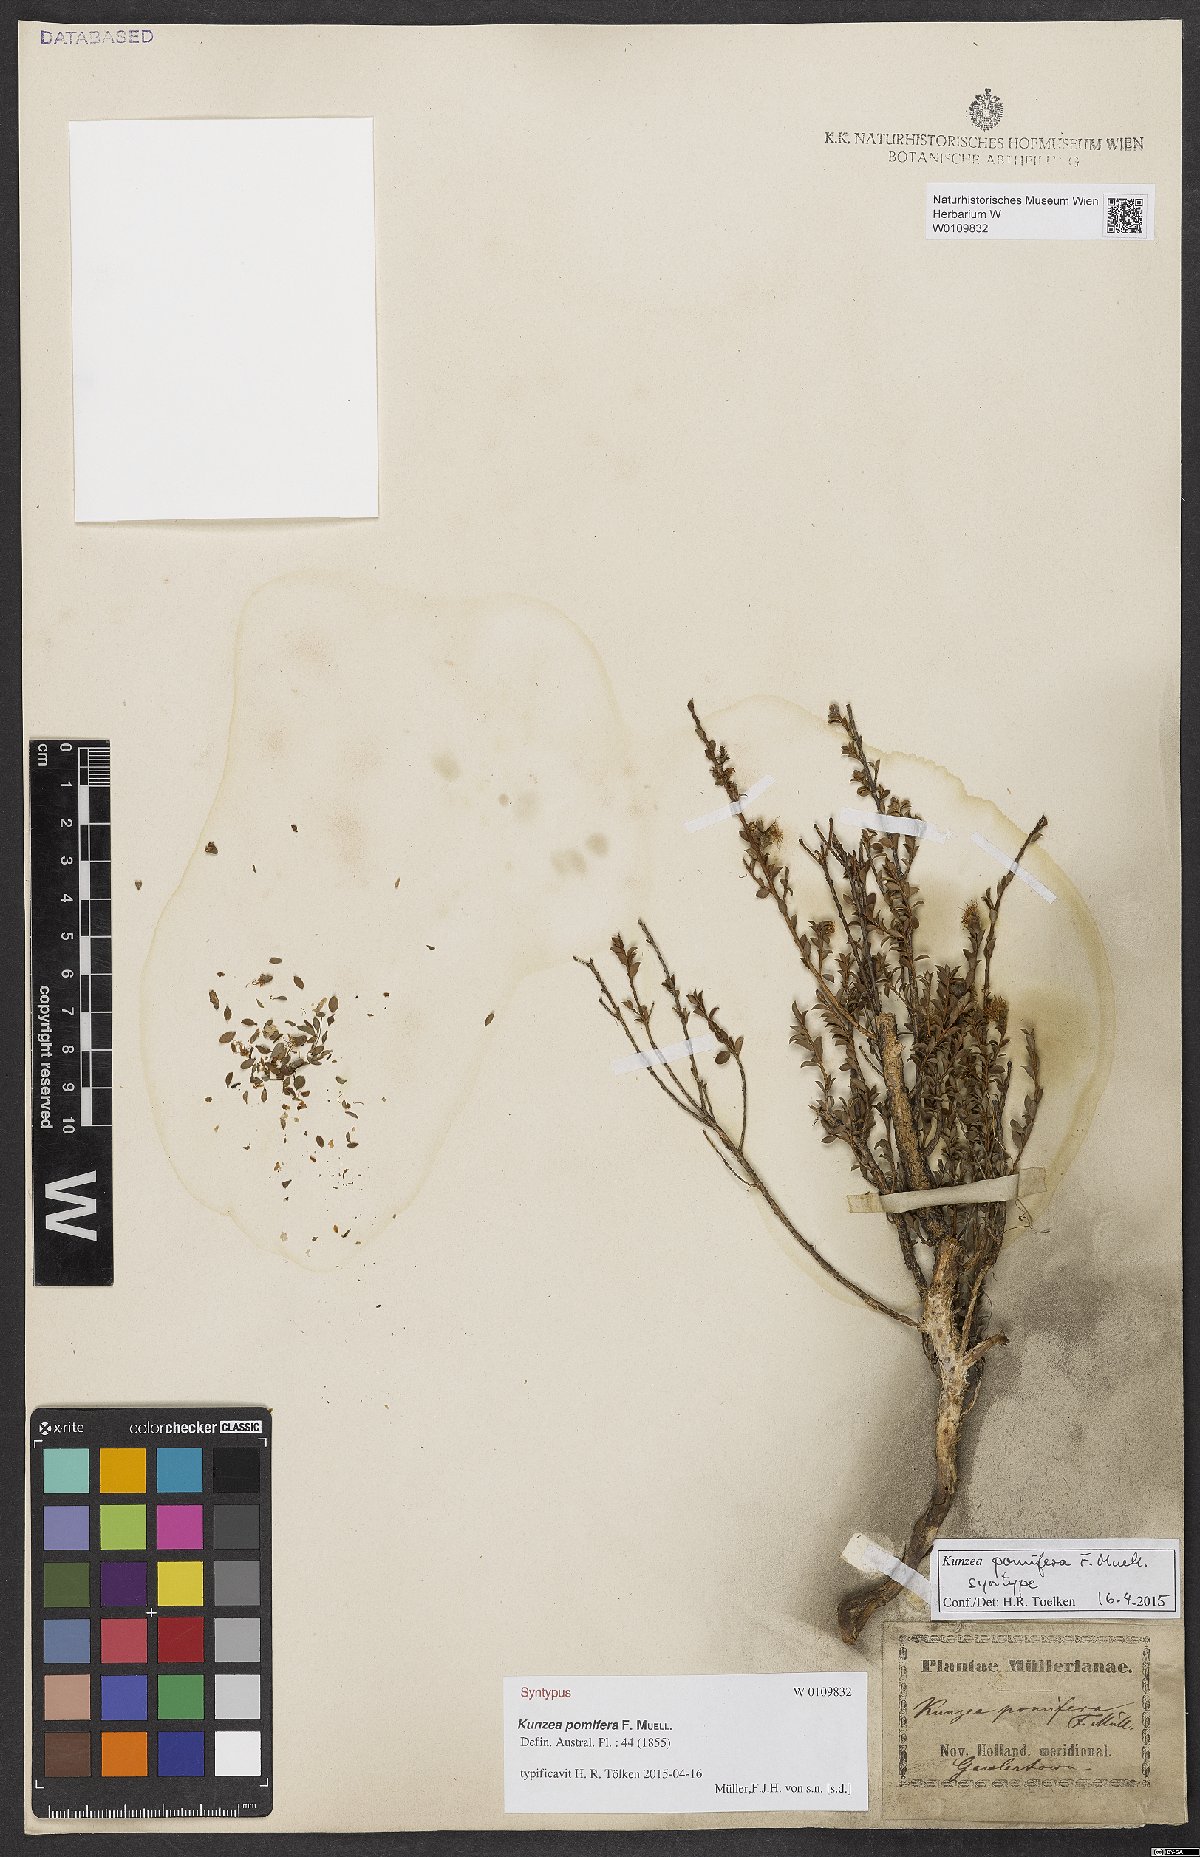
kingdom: Plantae
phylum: Tracheophyta
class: Magnoliopsida
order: Myrtales
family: Myrtaceae
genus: Kunzea
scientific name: Kunzea pomifera
